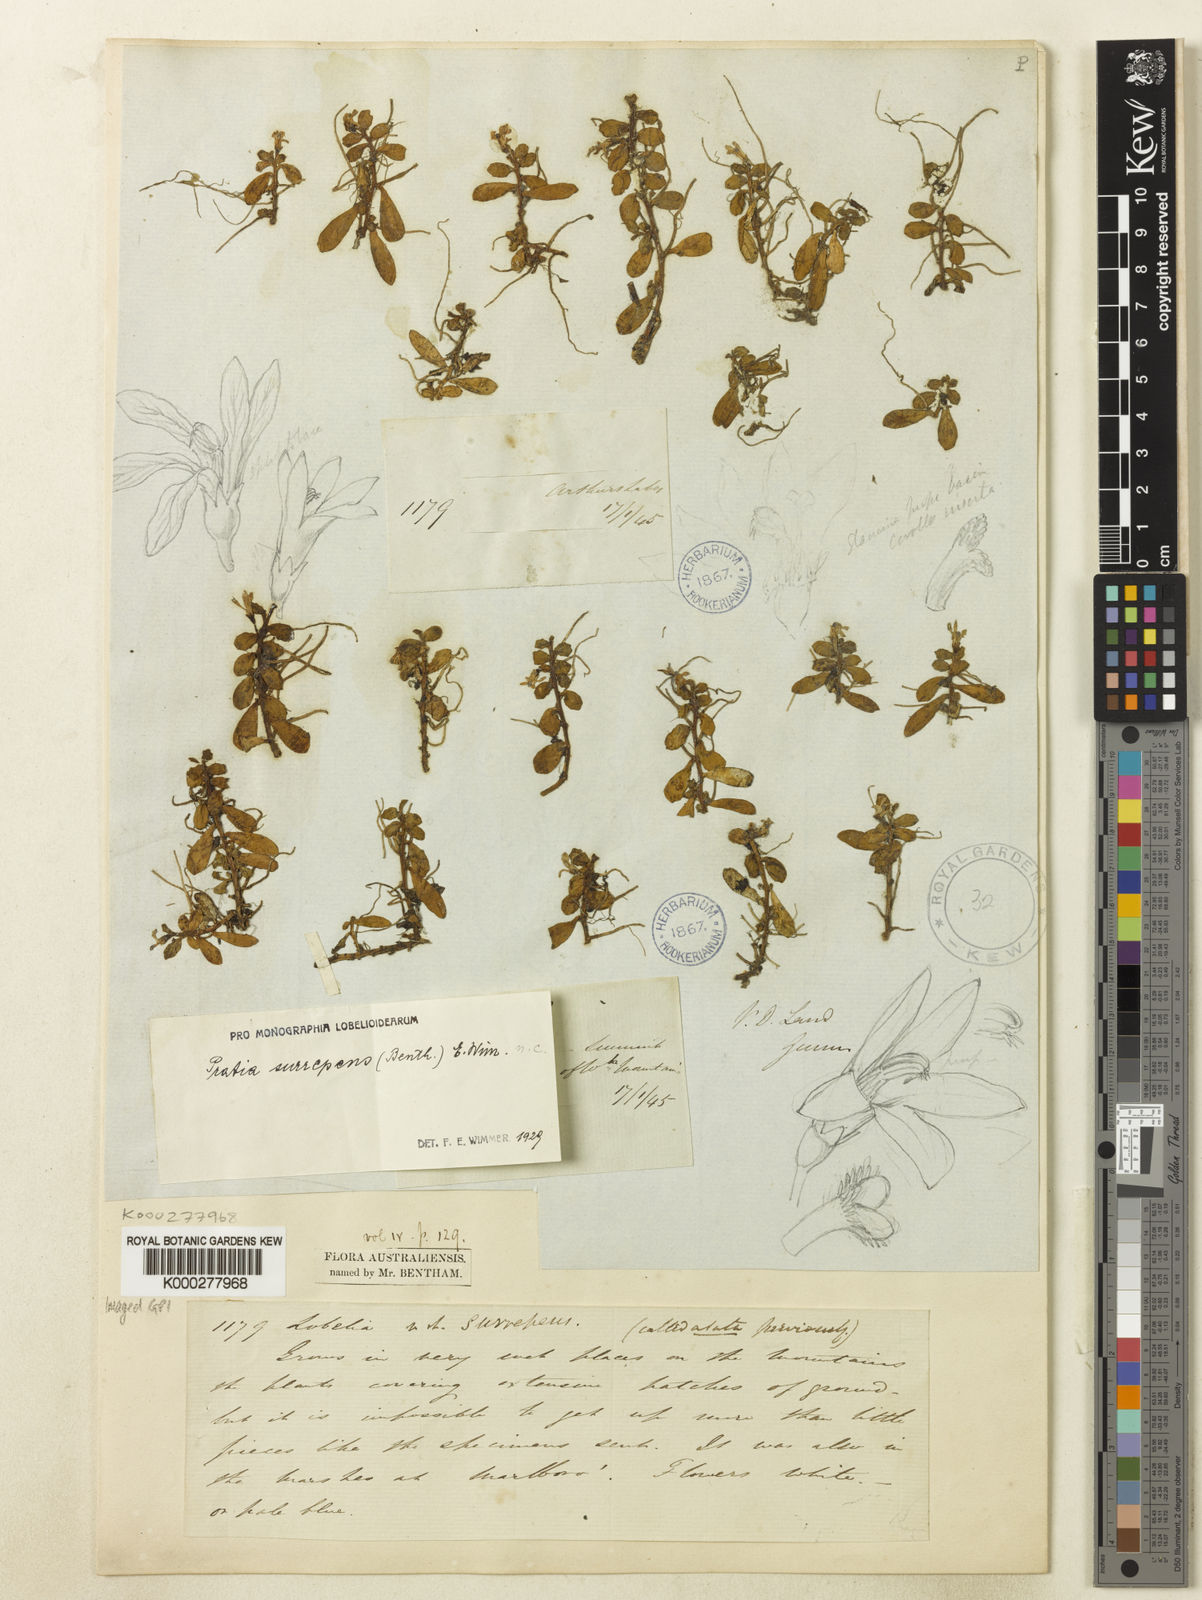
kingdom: Plantae
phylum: Tracheophyta
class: Magnoliopsida
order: Asterales
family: Campanulaceae
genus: Lobelia
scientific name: Lobelia surrepens
